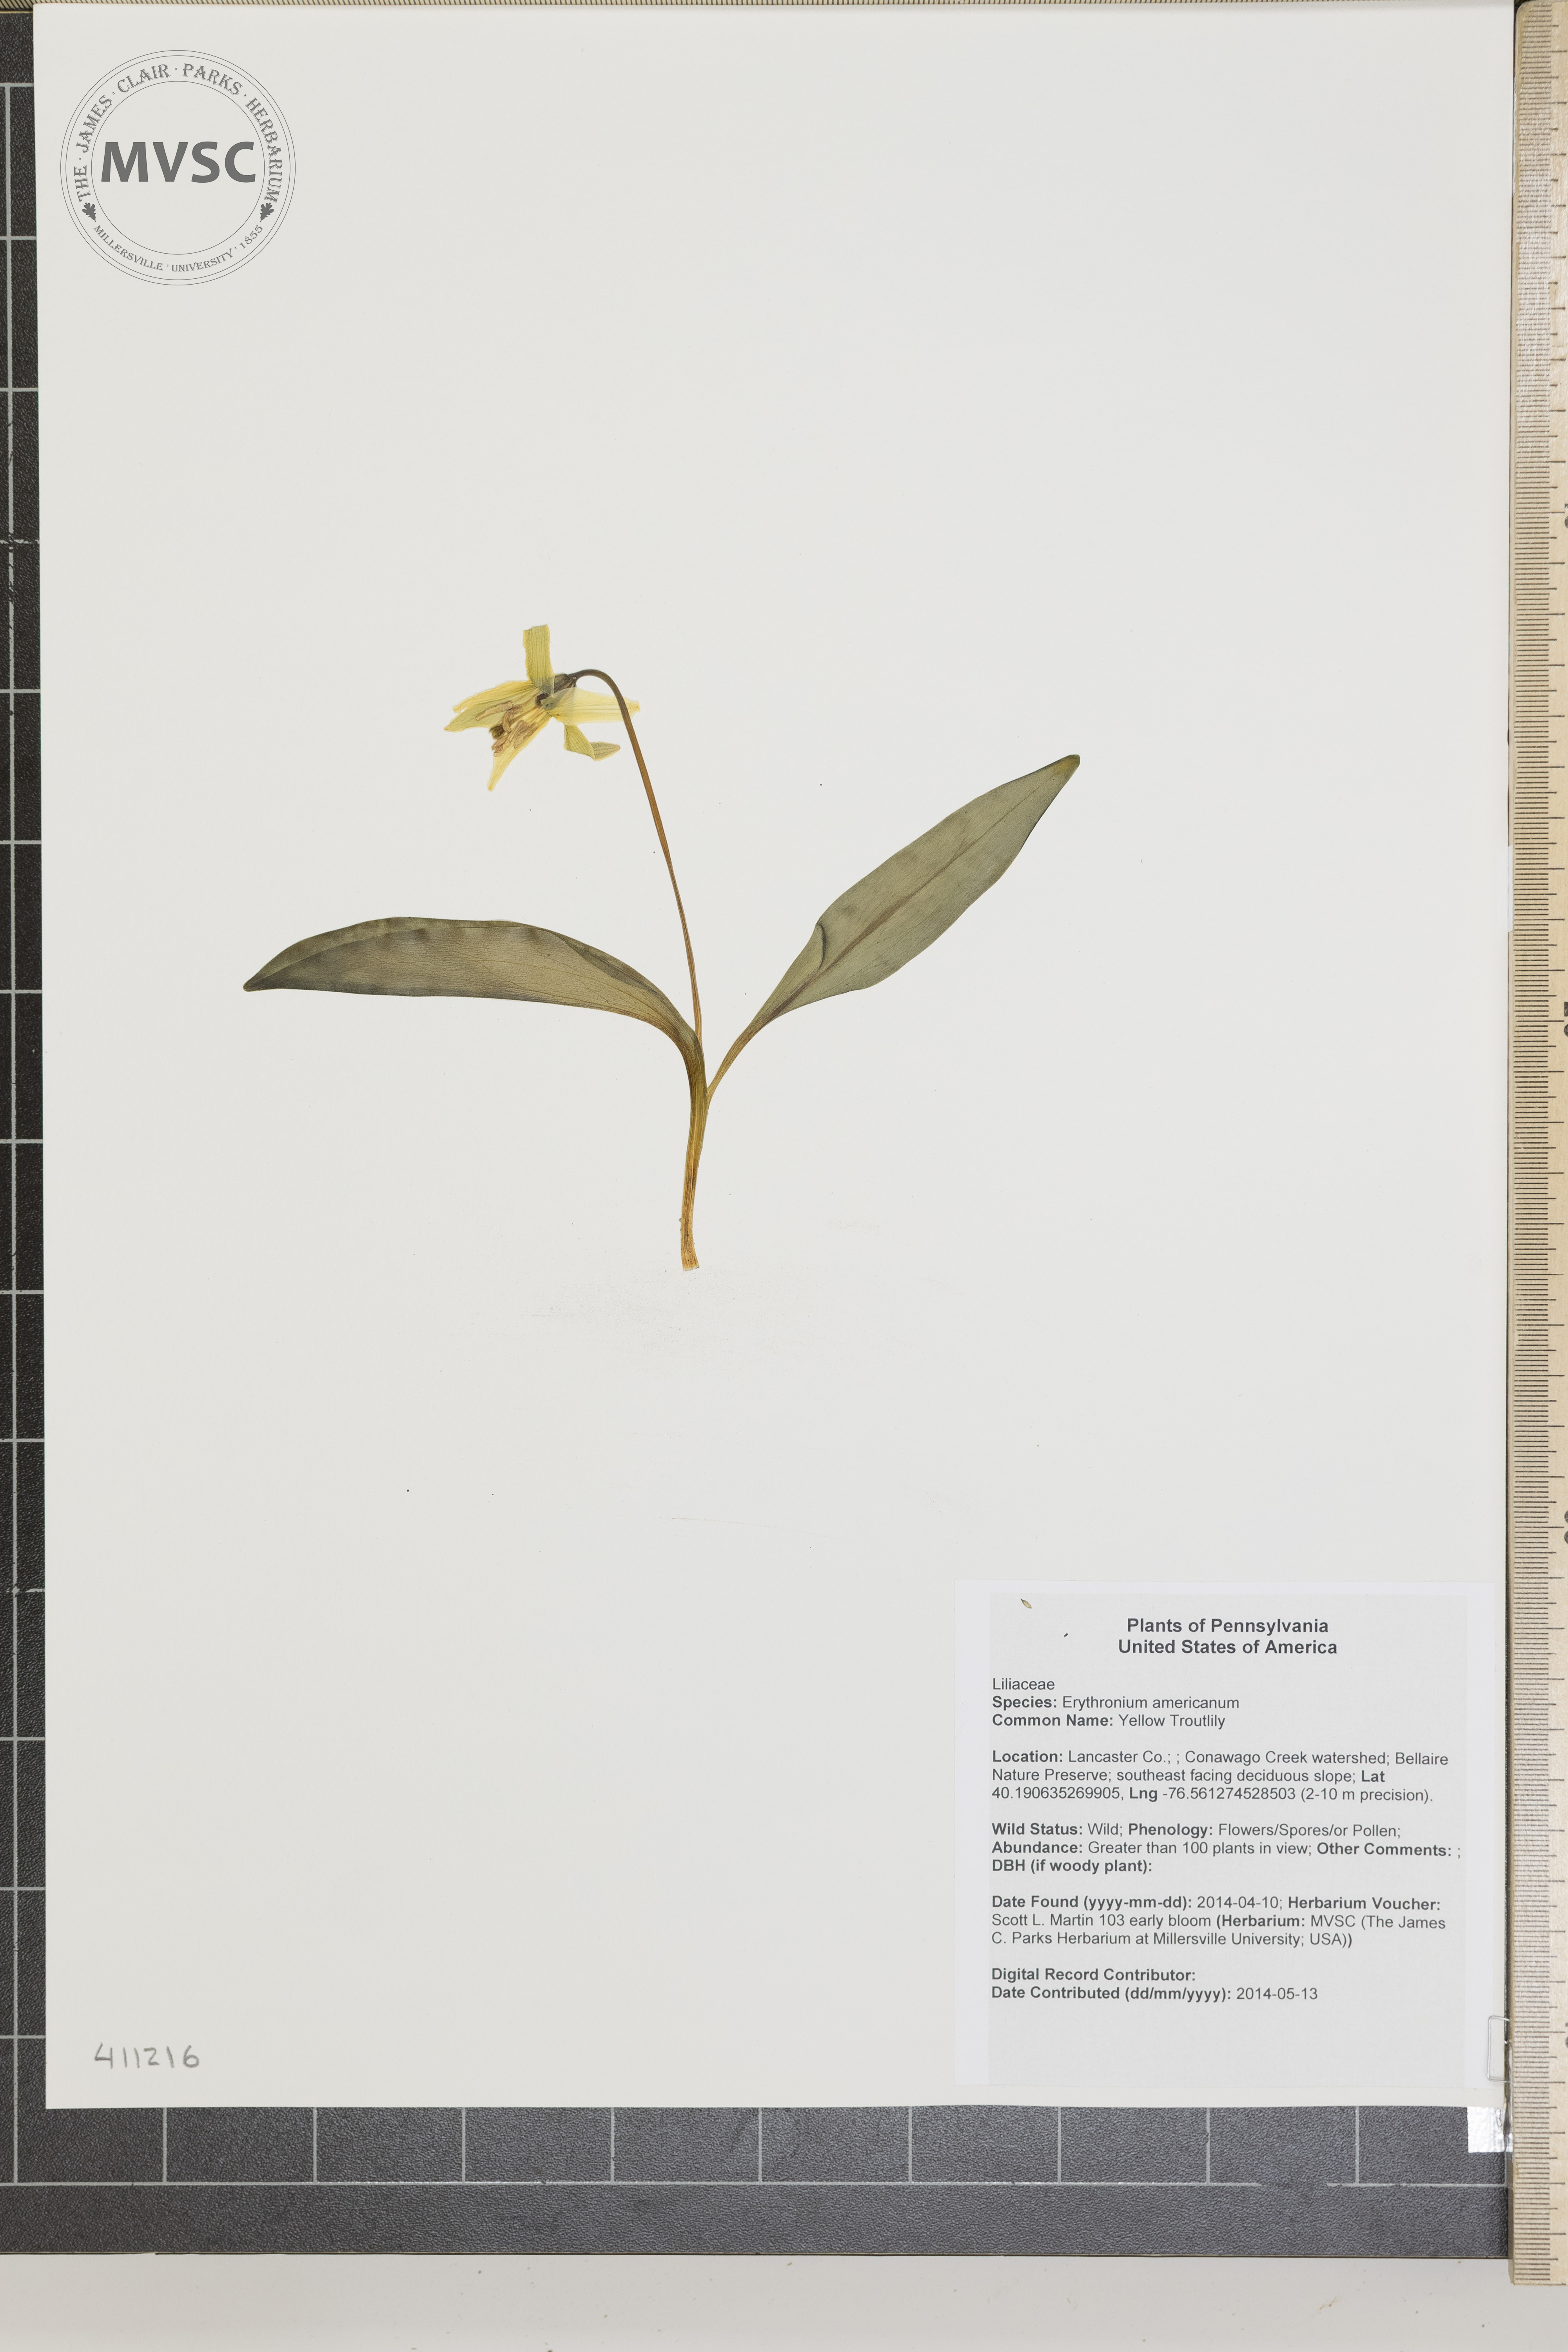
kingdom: Plantae
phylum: Tracheophyta
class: Liliopsida
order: Liliales
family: Liliaceae
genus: Erythronium
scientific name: Erythronium americanum
